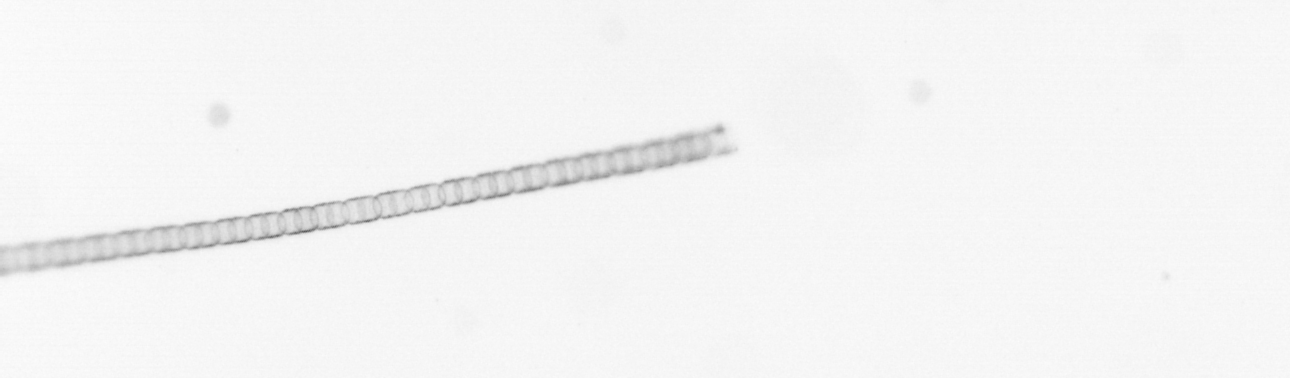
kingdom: Chromista
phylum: Ochrophyta
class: Bacillariophyceae
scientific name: Bacillariophyceae
